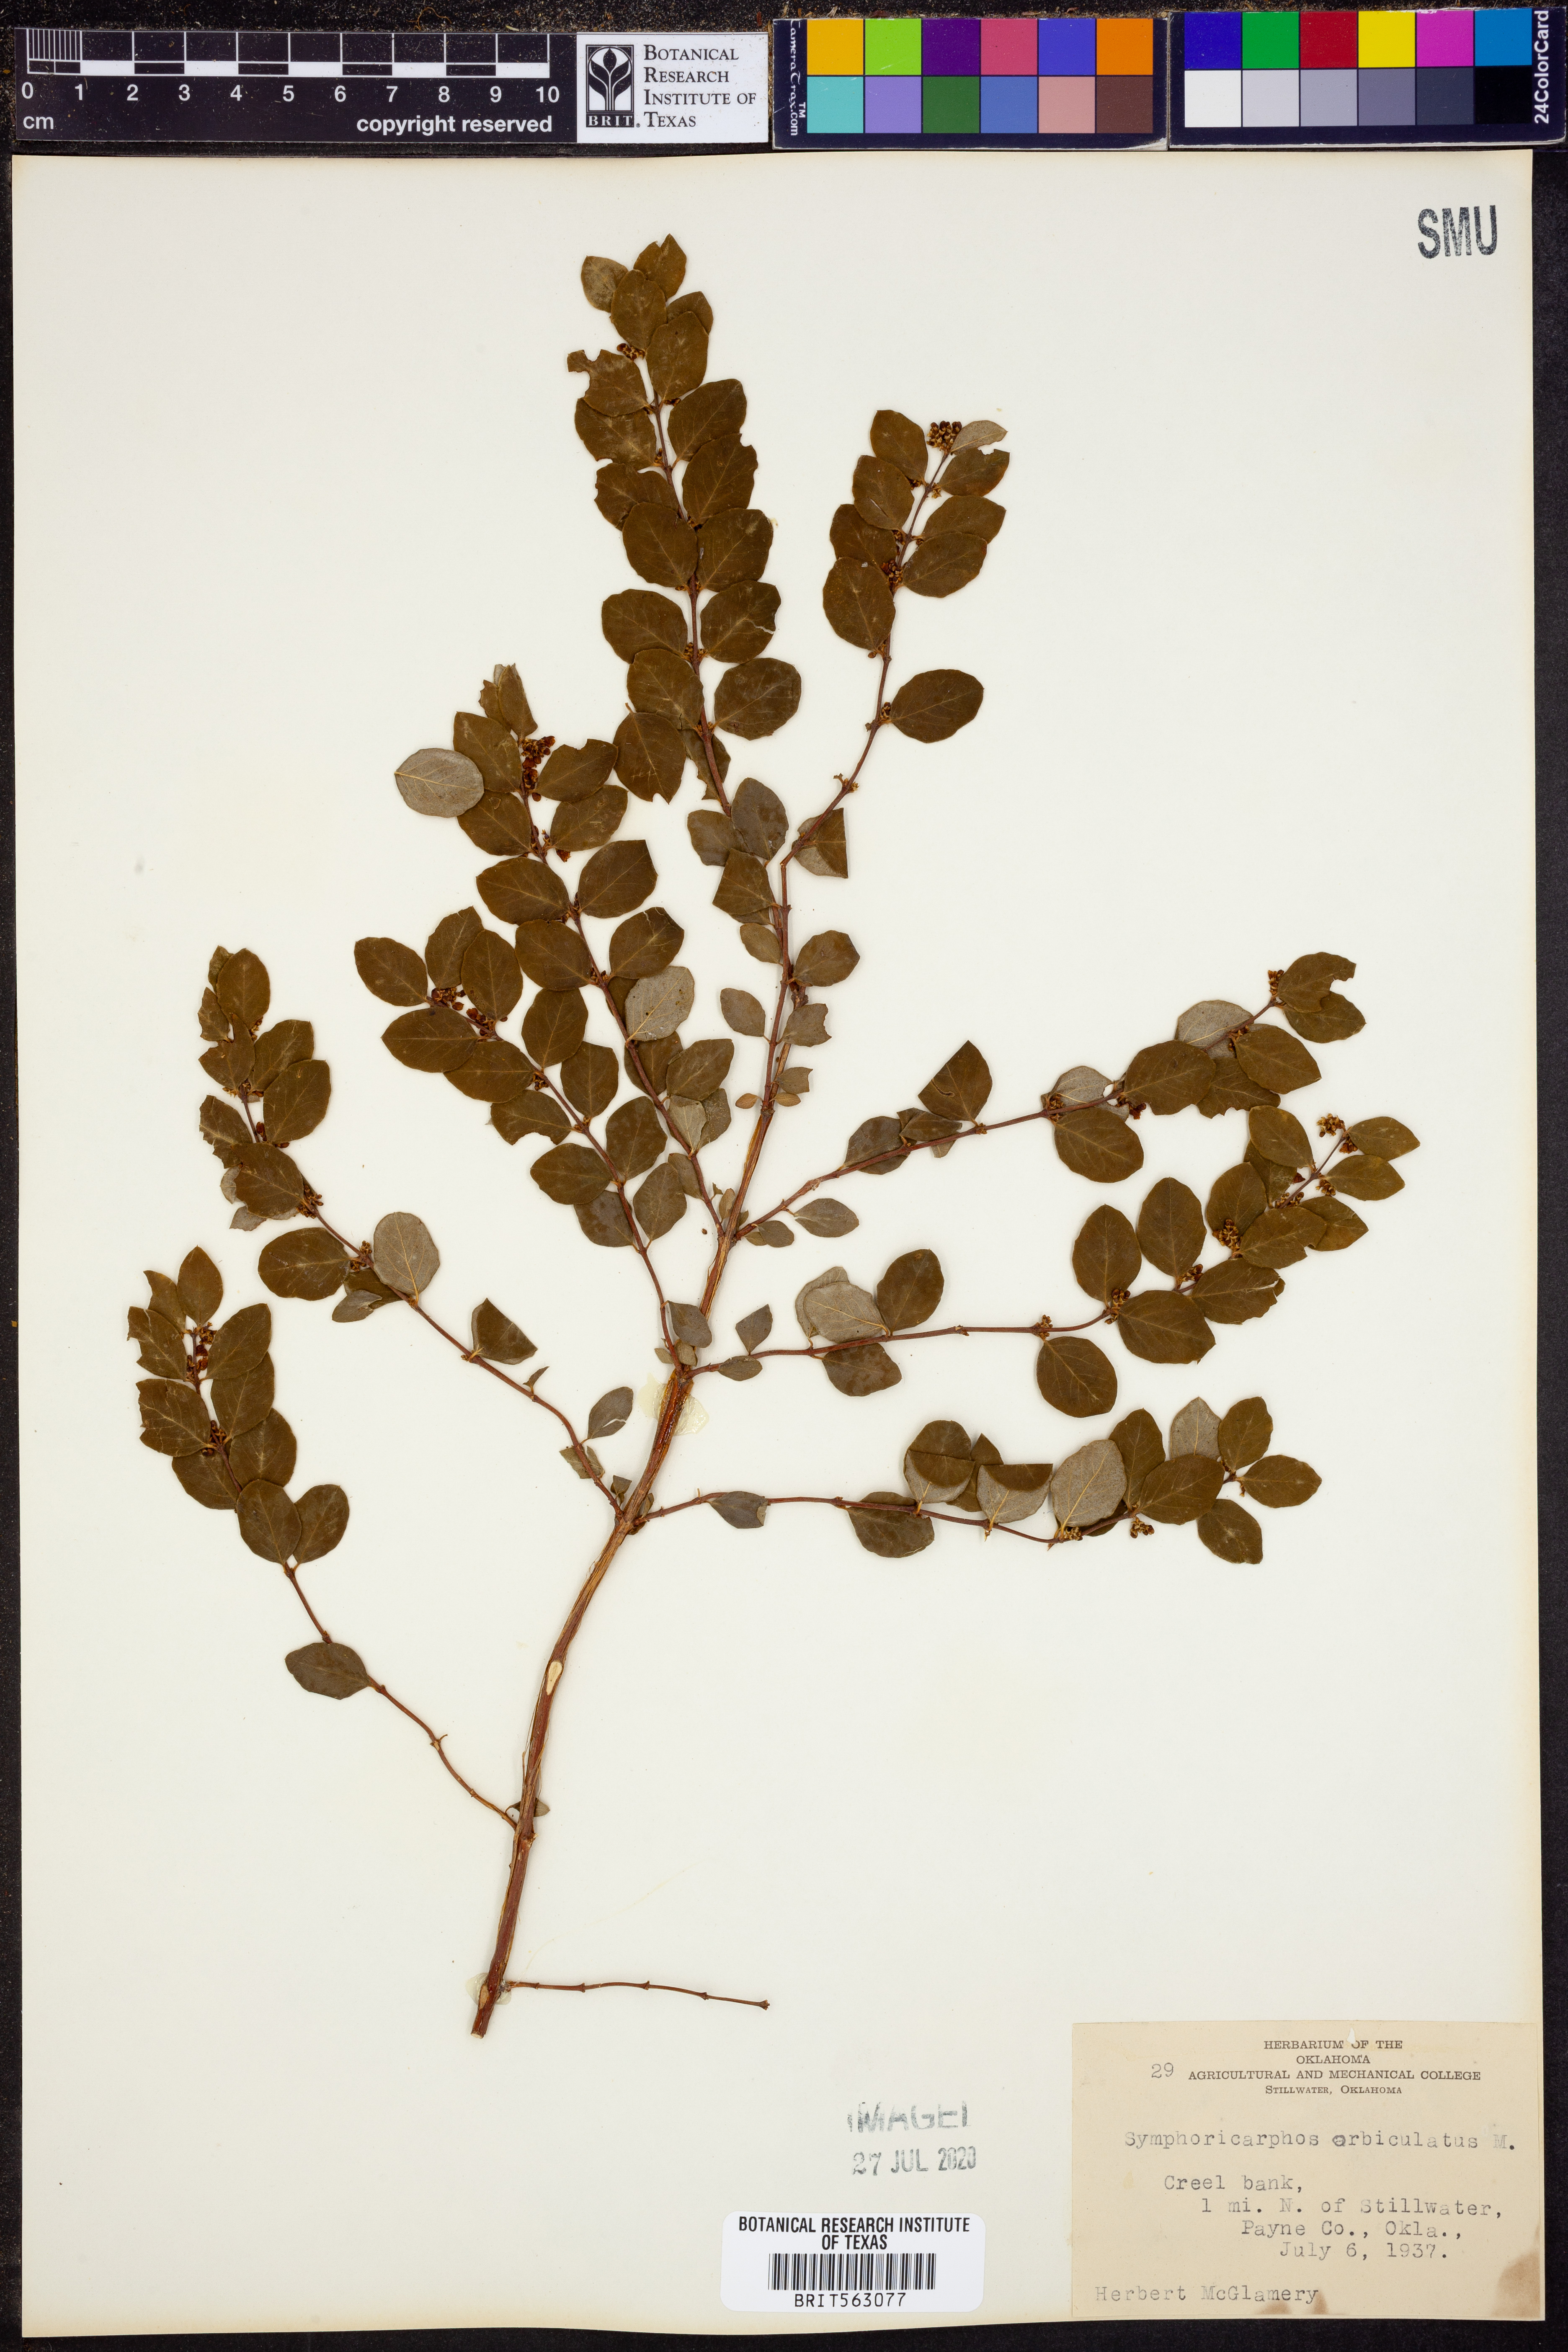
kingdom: Plantae
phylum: Tracheophyta
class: Magnoliopsida
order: Dipsacales
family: Caprifoliaceae
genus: Symphoricarpos
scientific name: Symphoricarpos orbiculatus
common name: Coralberry
